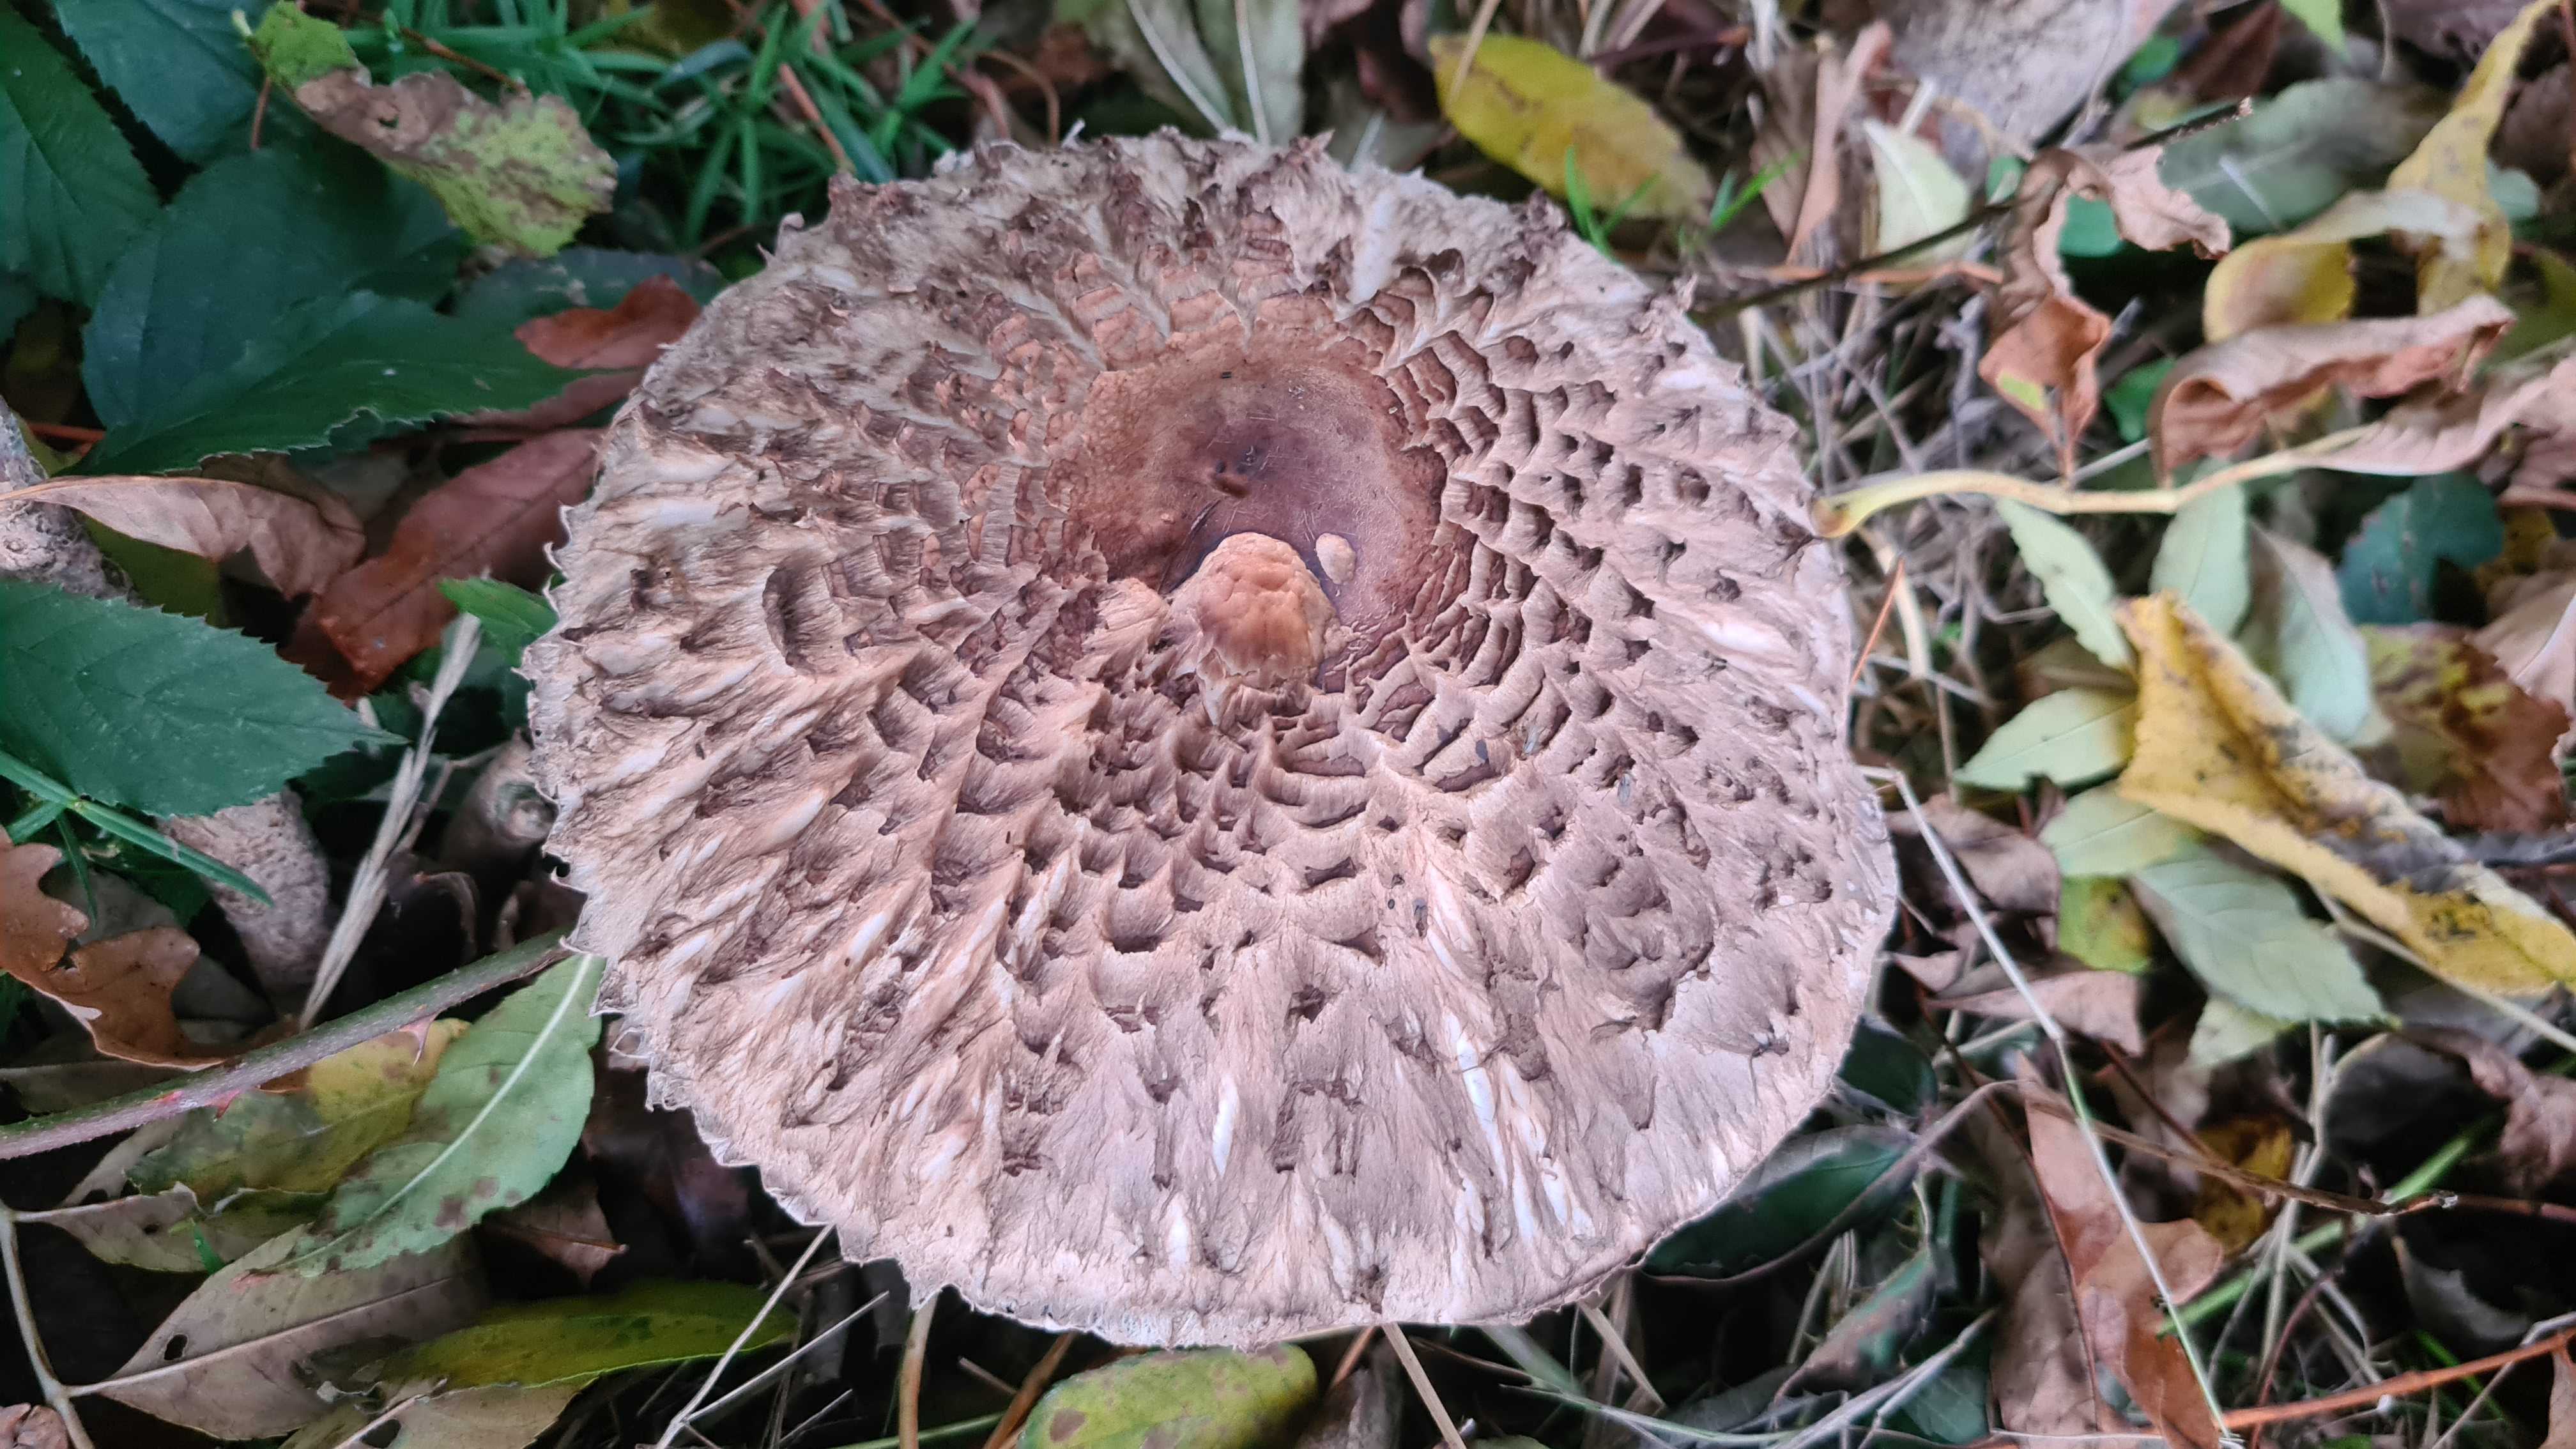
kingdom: Fungi
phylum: Basidiomycota
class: Agaricomycetes
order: Agaricales
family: Agaricaceae
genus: Chlorophyllum
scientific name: Chlorophyllum rhacodes
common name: ægte rabarberhat
